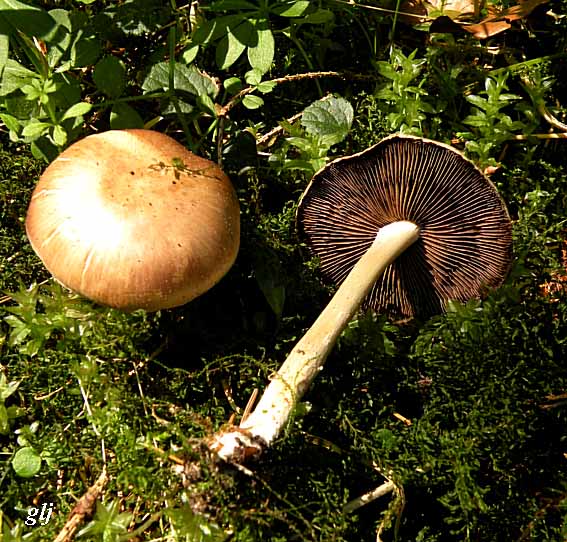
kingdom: Fungi
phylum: Basidiomycota
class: Agaricomycetes
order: Agaricales
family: Psathyrellaceae
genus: Psathyrella
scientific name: Psathyrella spadiceogrisea
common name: gråbrun mørkhat
